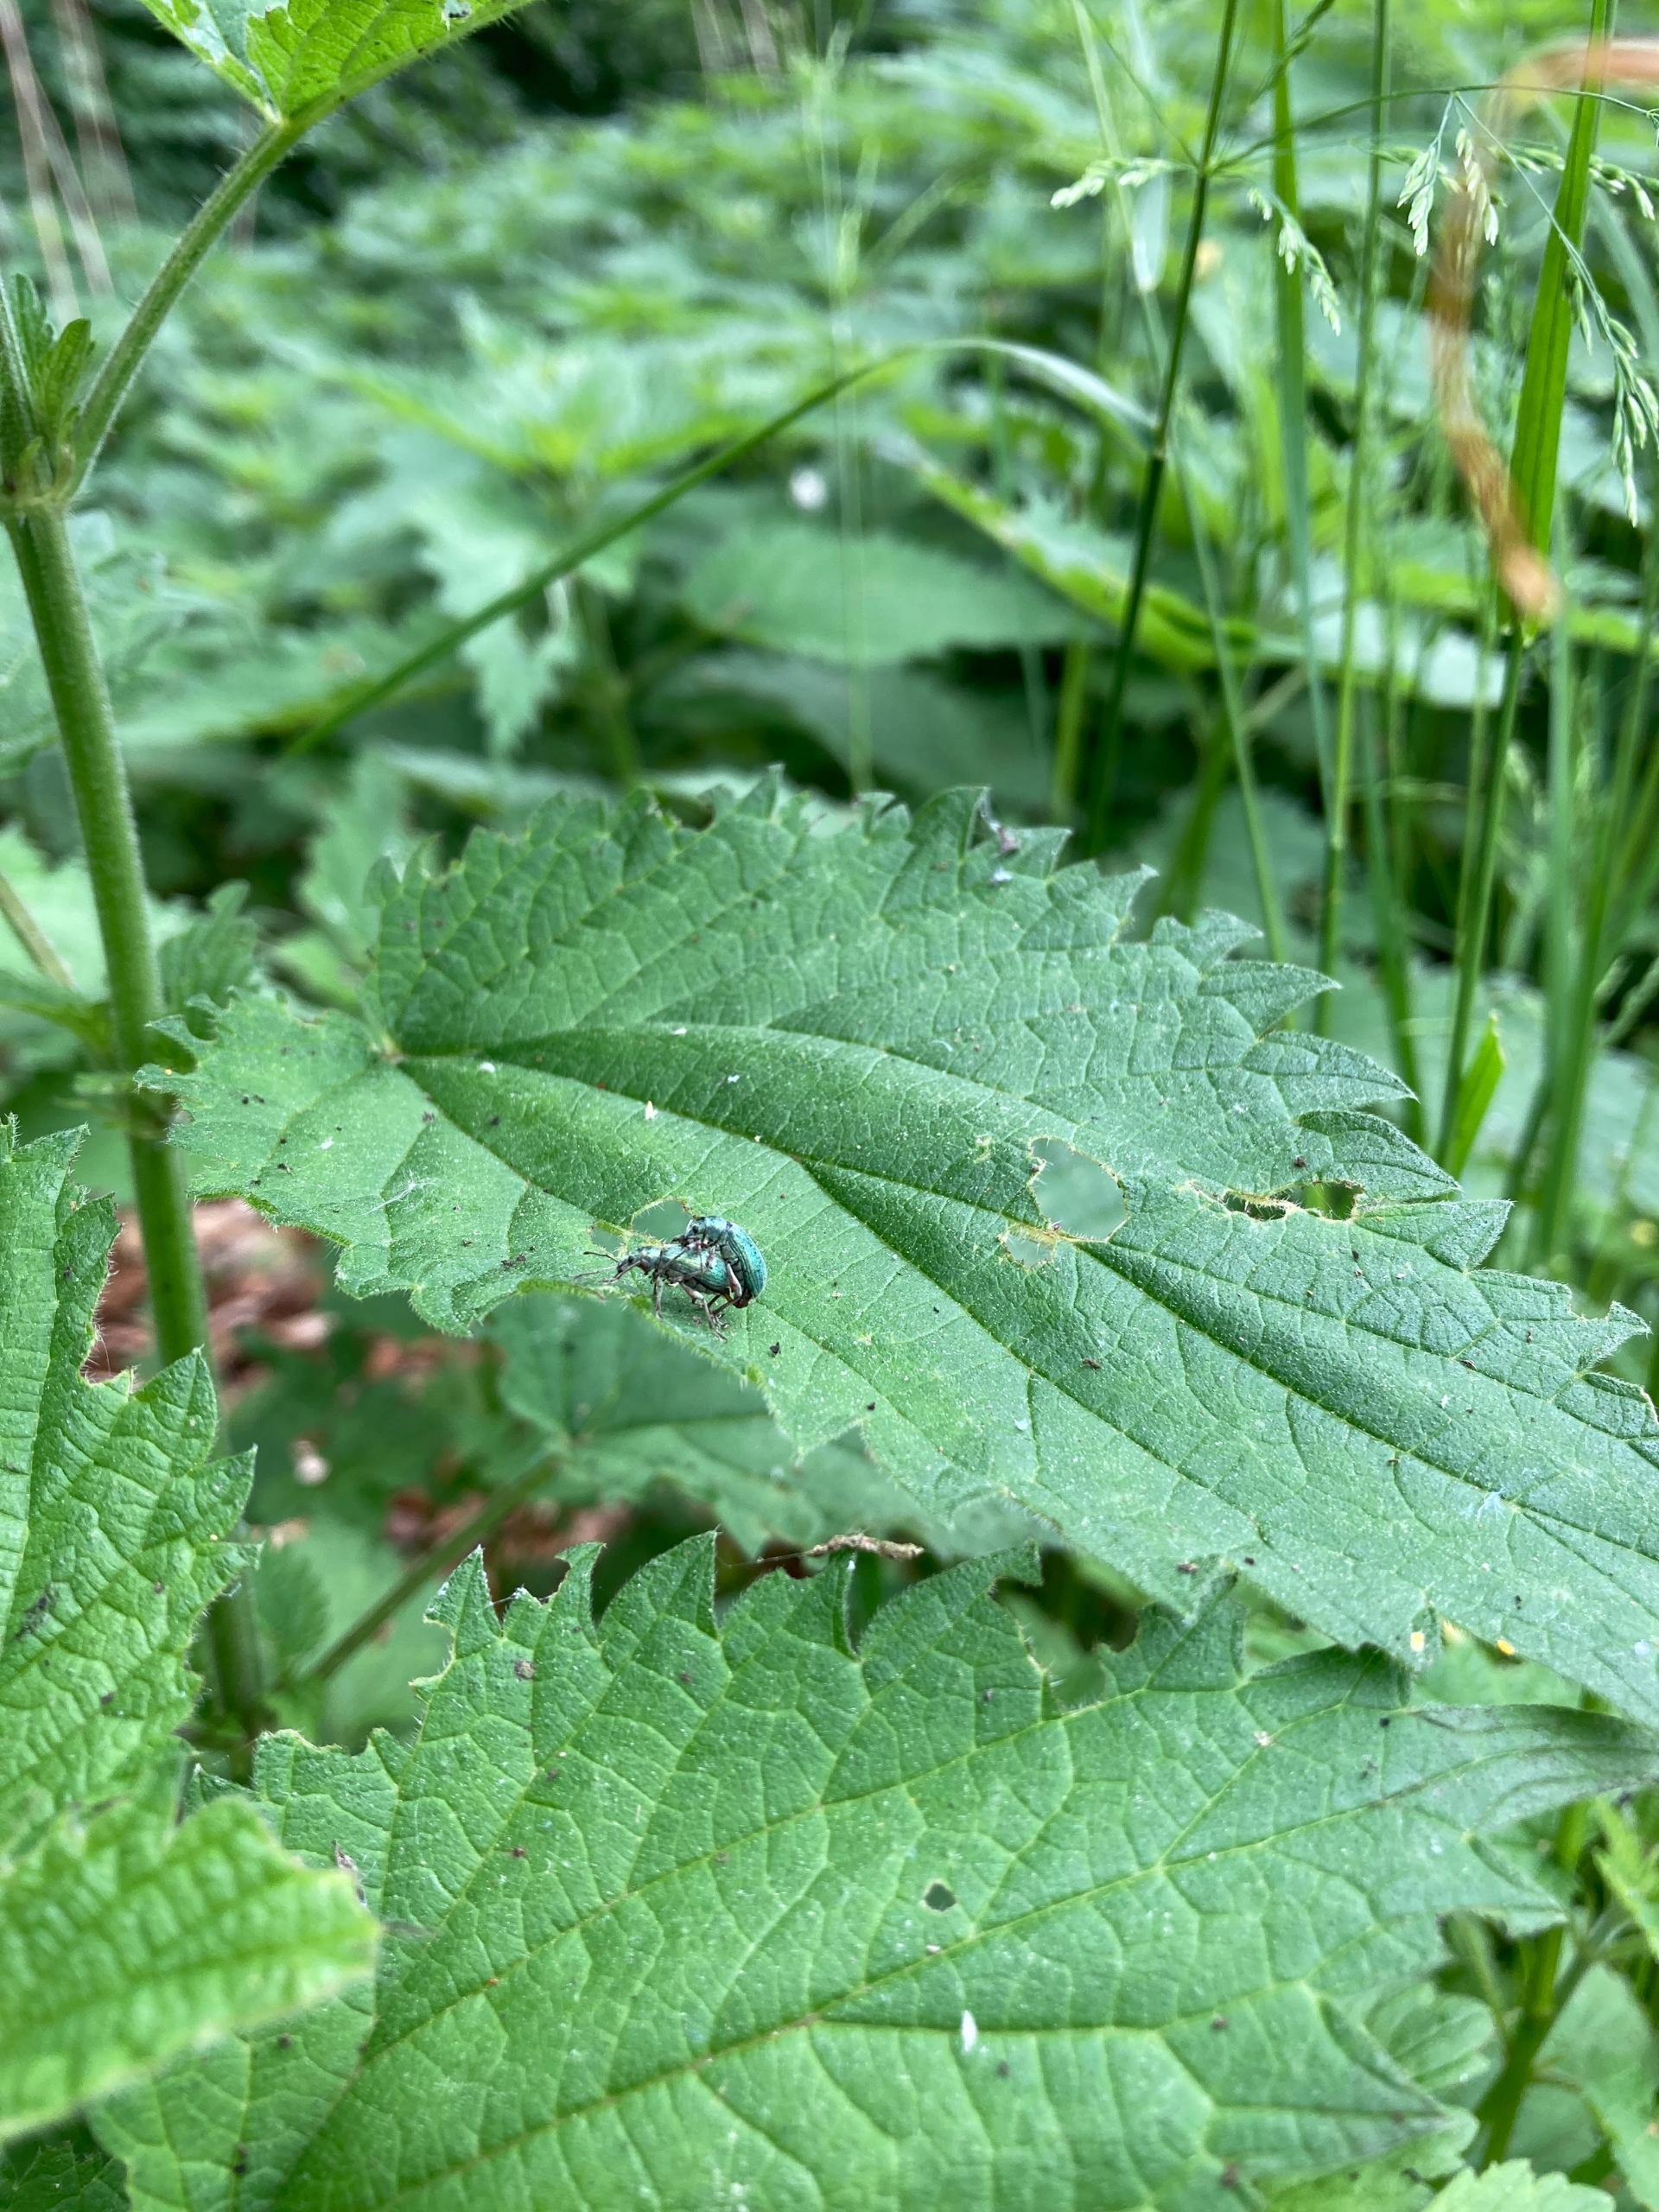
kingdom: Animalia
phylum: Arthropoda
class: Insecta
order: Coleoptera
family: Curculionidae
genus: Phyllobius
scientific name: Phyllobius pomaceus
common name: Nældesnudebille
